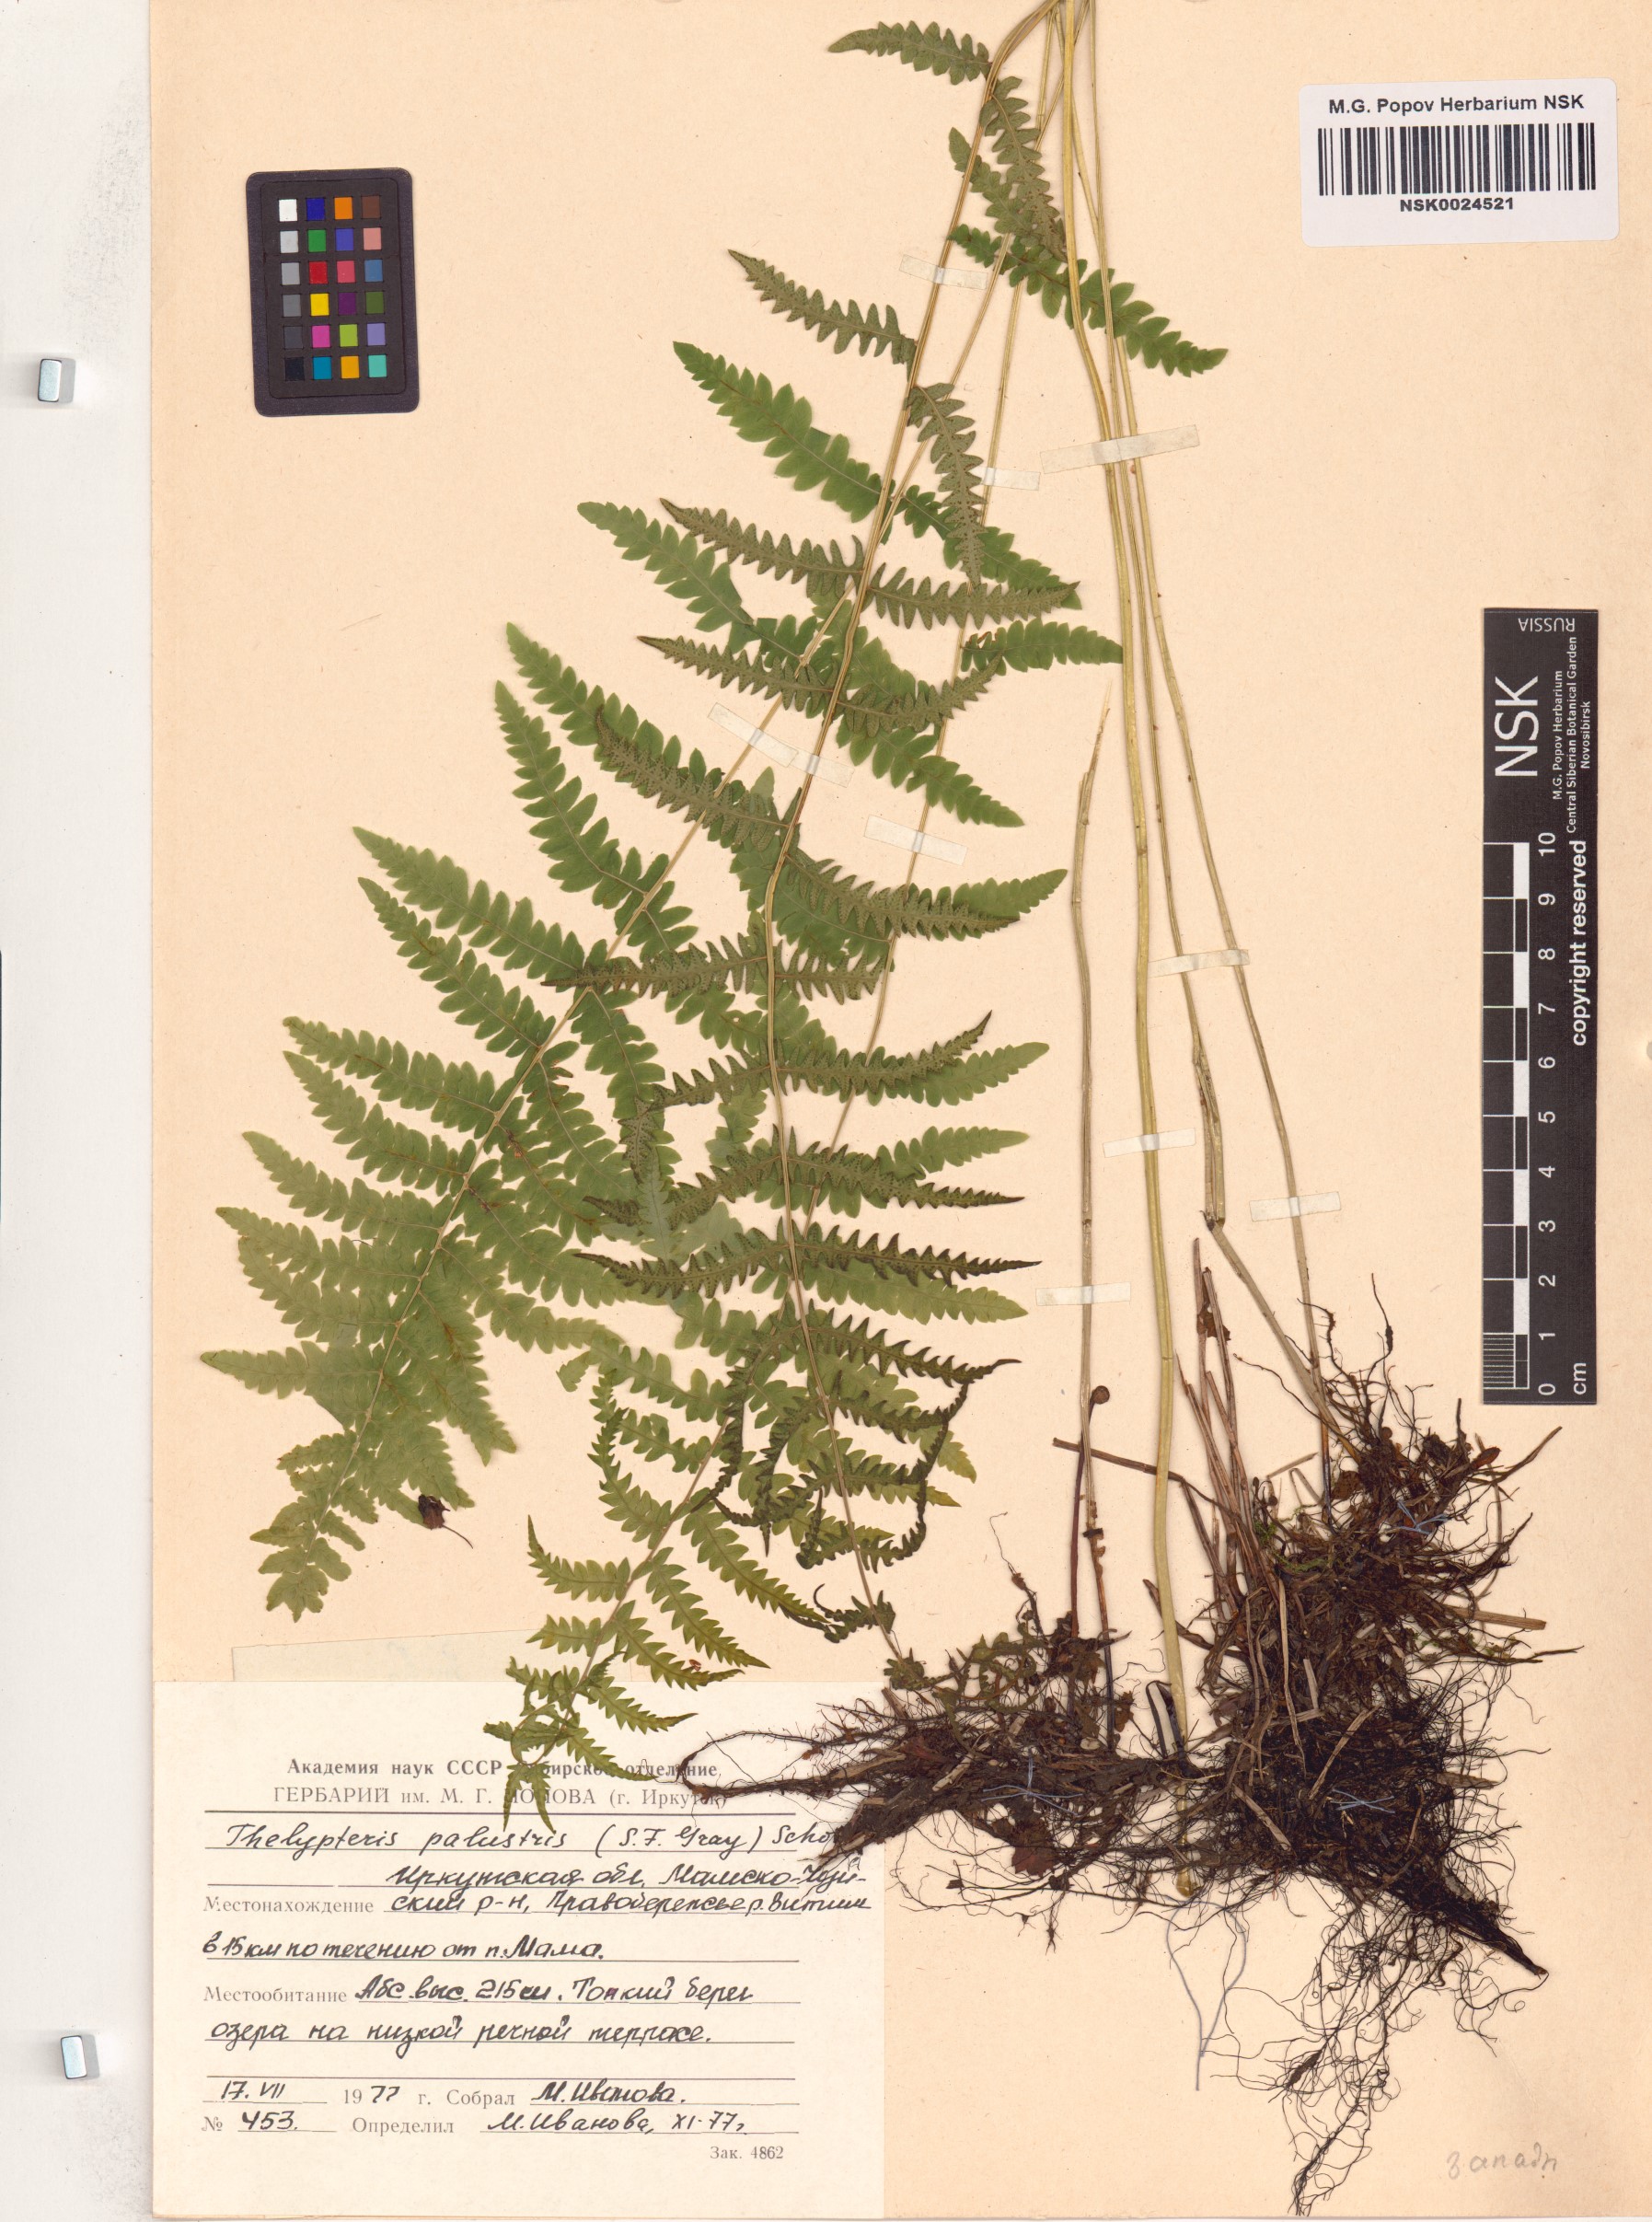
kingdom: Plantae
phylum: Tracheophyta
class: Polypodiopsida
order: Polypodiales
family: Thelypteridaceae
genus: Thelypteris
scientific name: Thelypteris palustris
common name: Marsh fern
